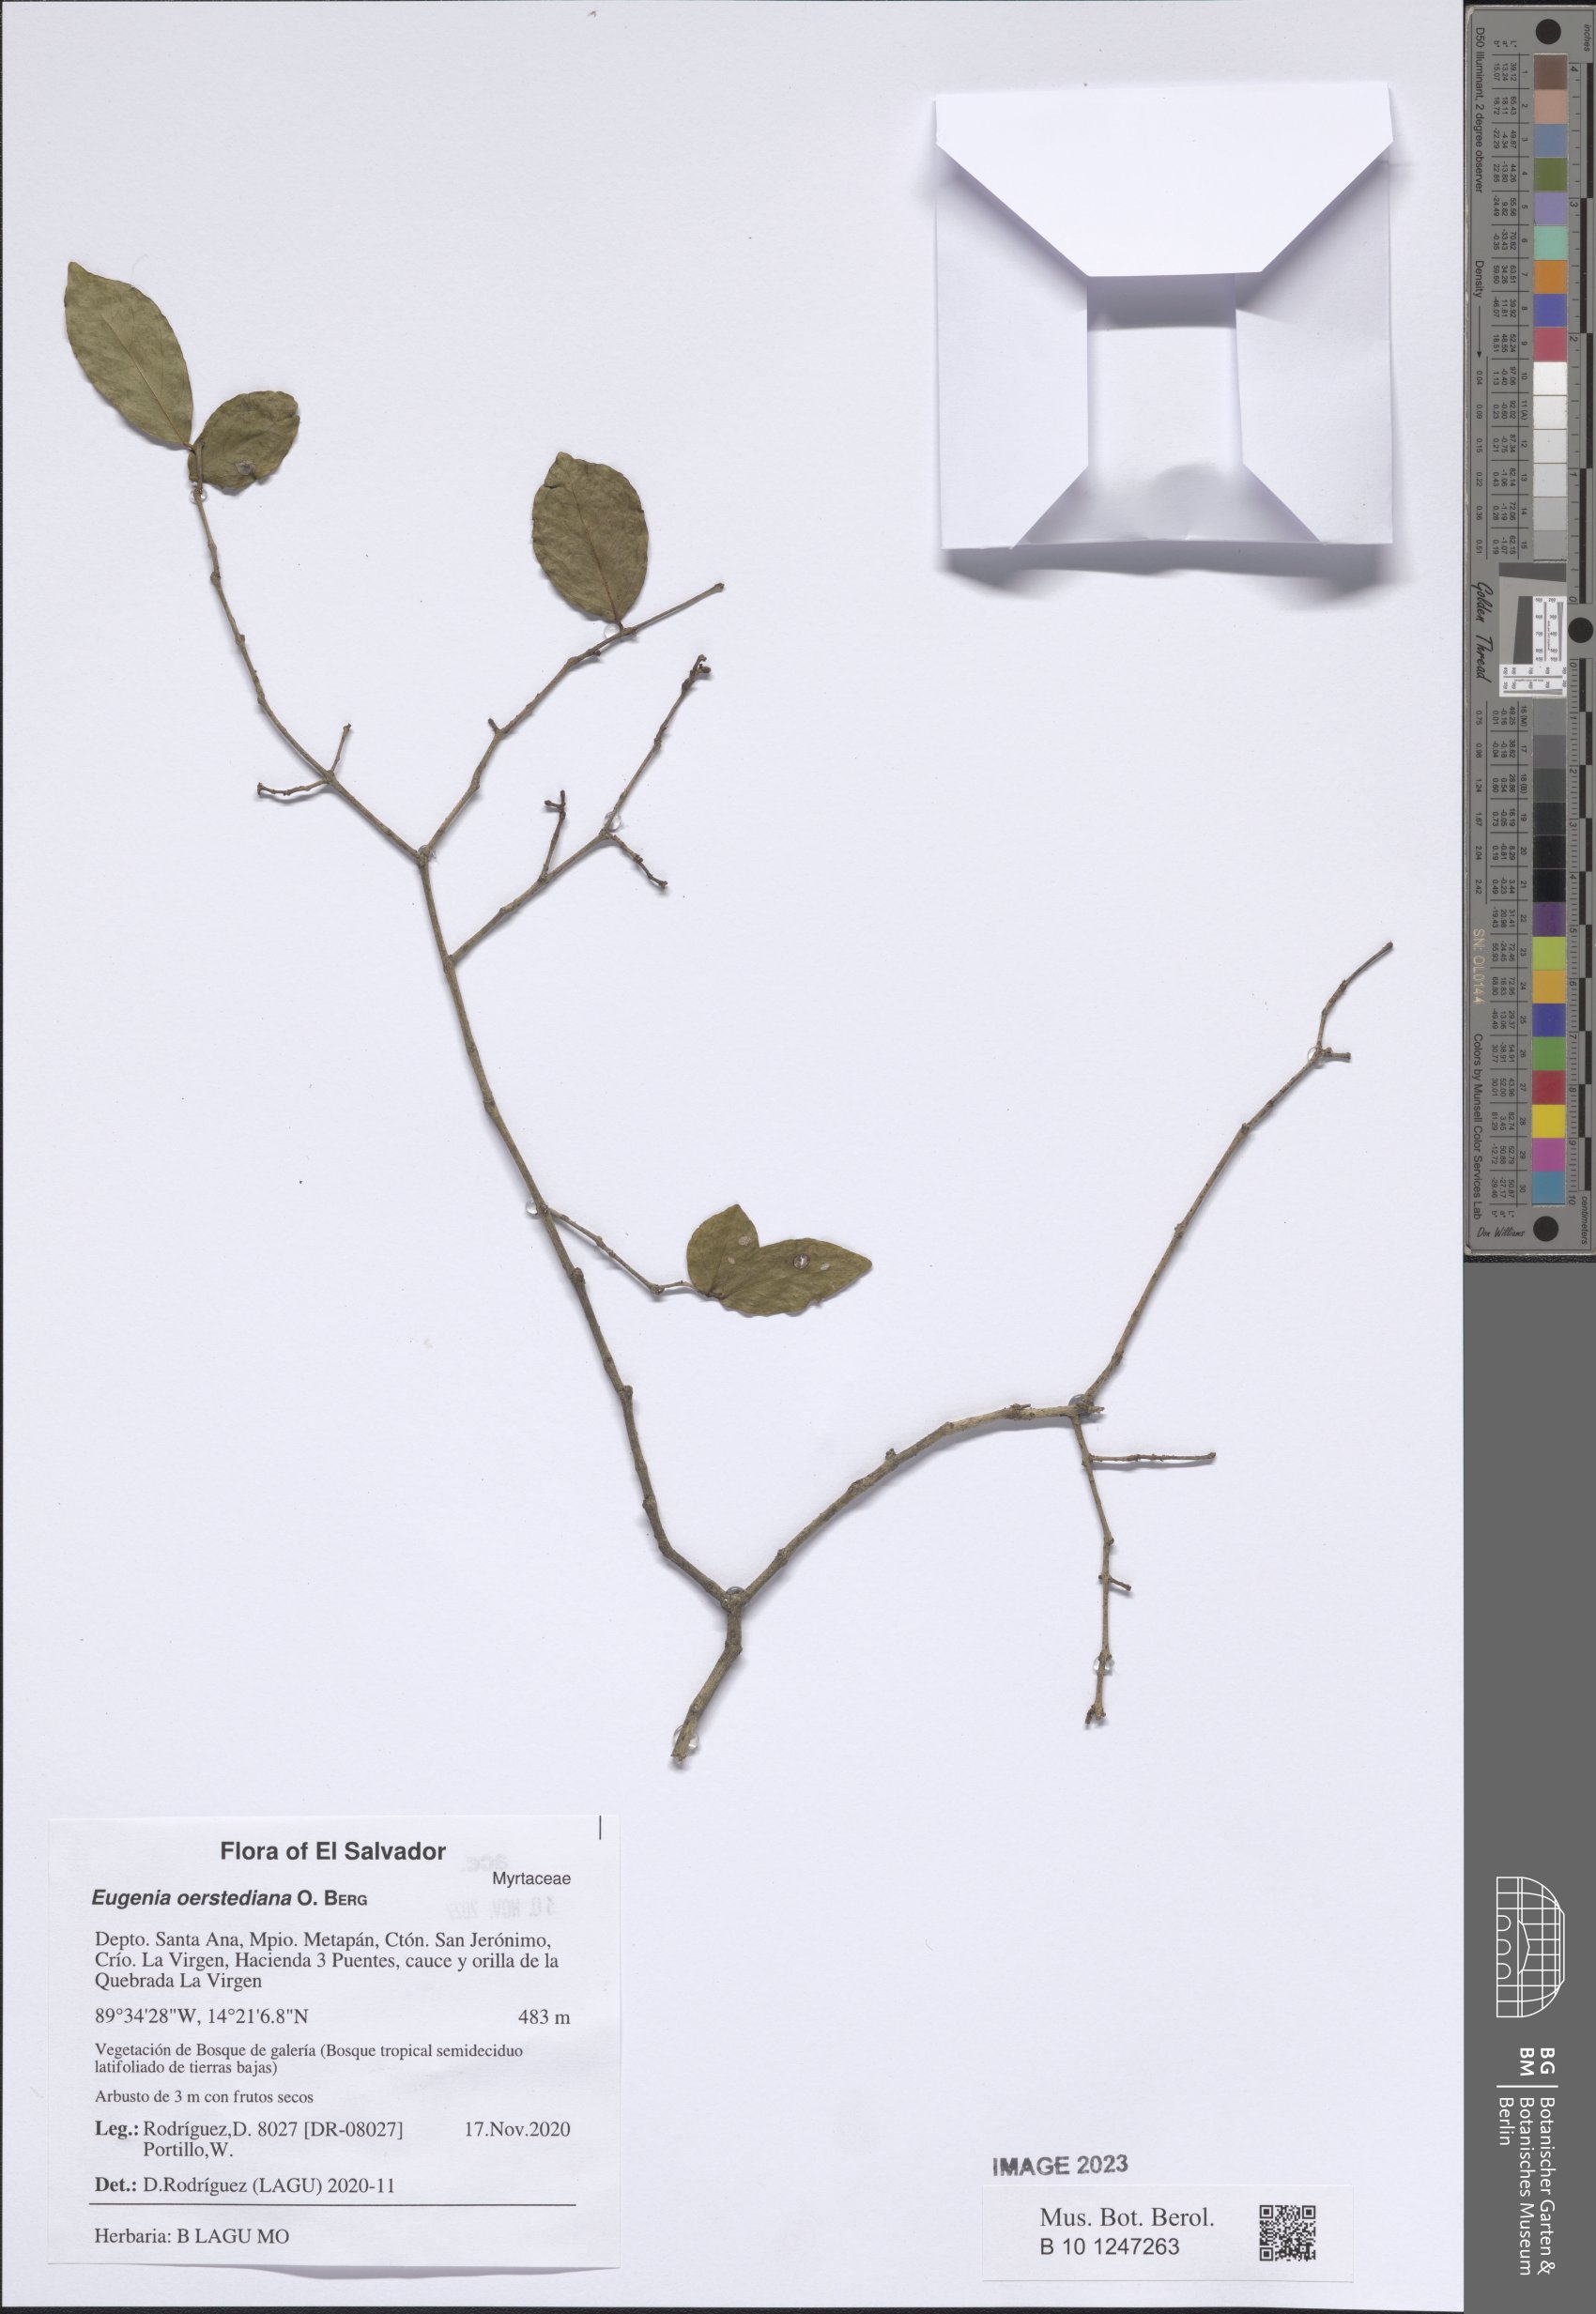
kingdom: Plantae
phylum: Tracheophyta
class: Magnoliopsida
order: Myrtales
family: Myrtaceae
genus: Eugenia
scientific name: Eugenia oerstediana
